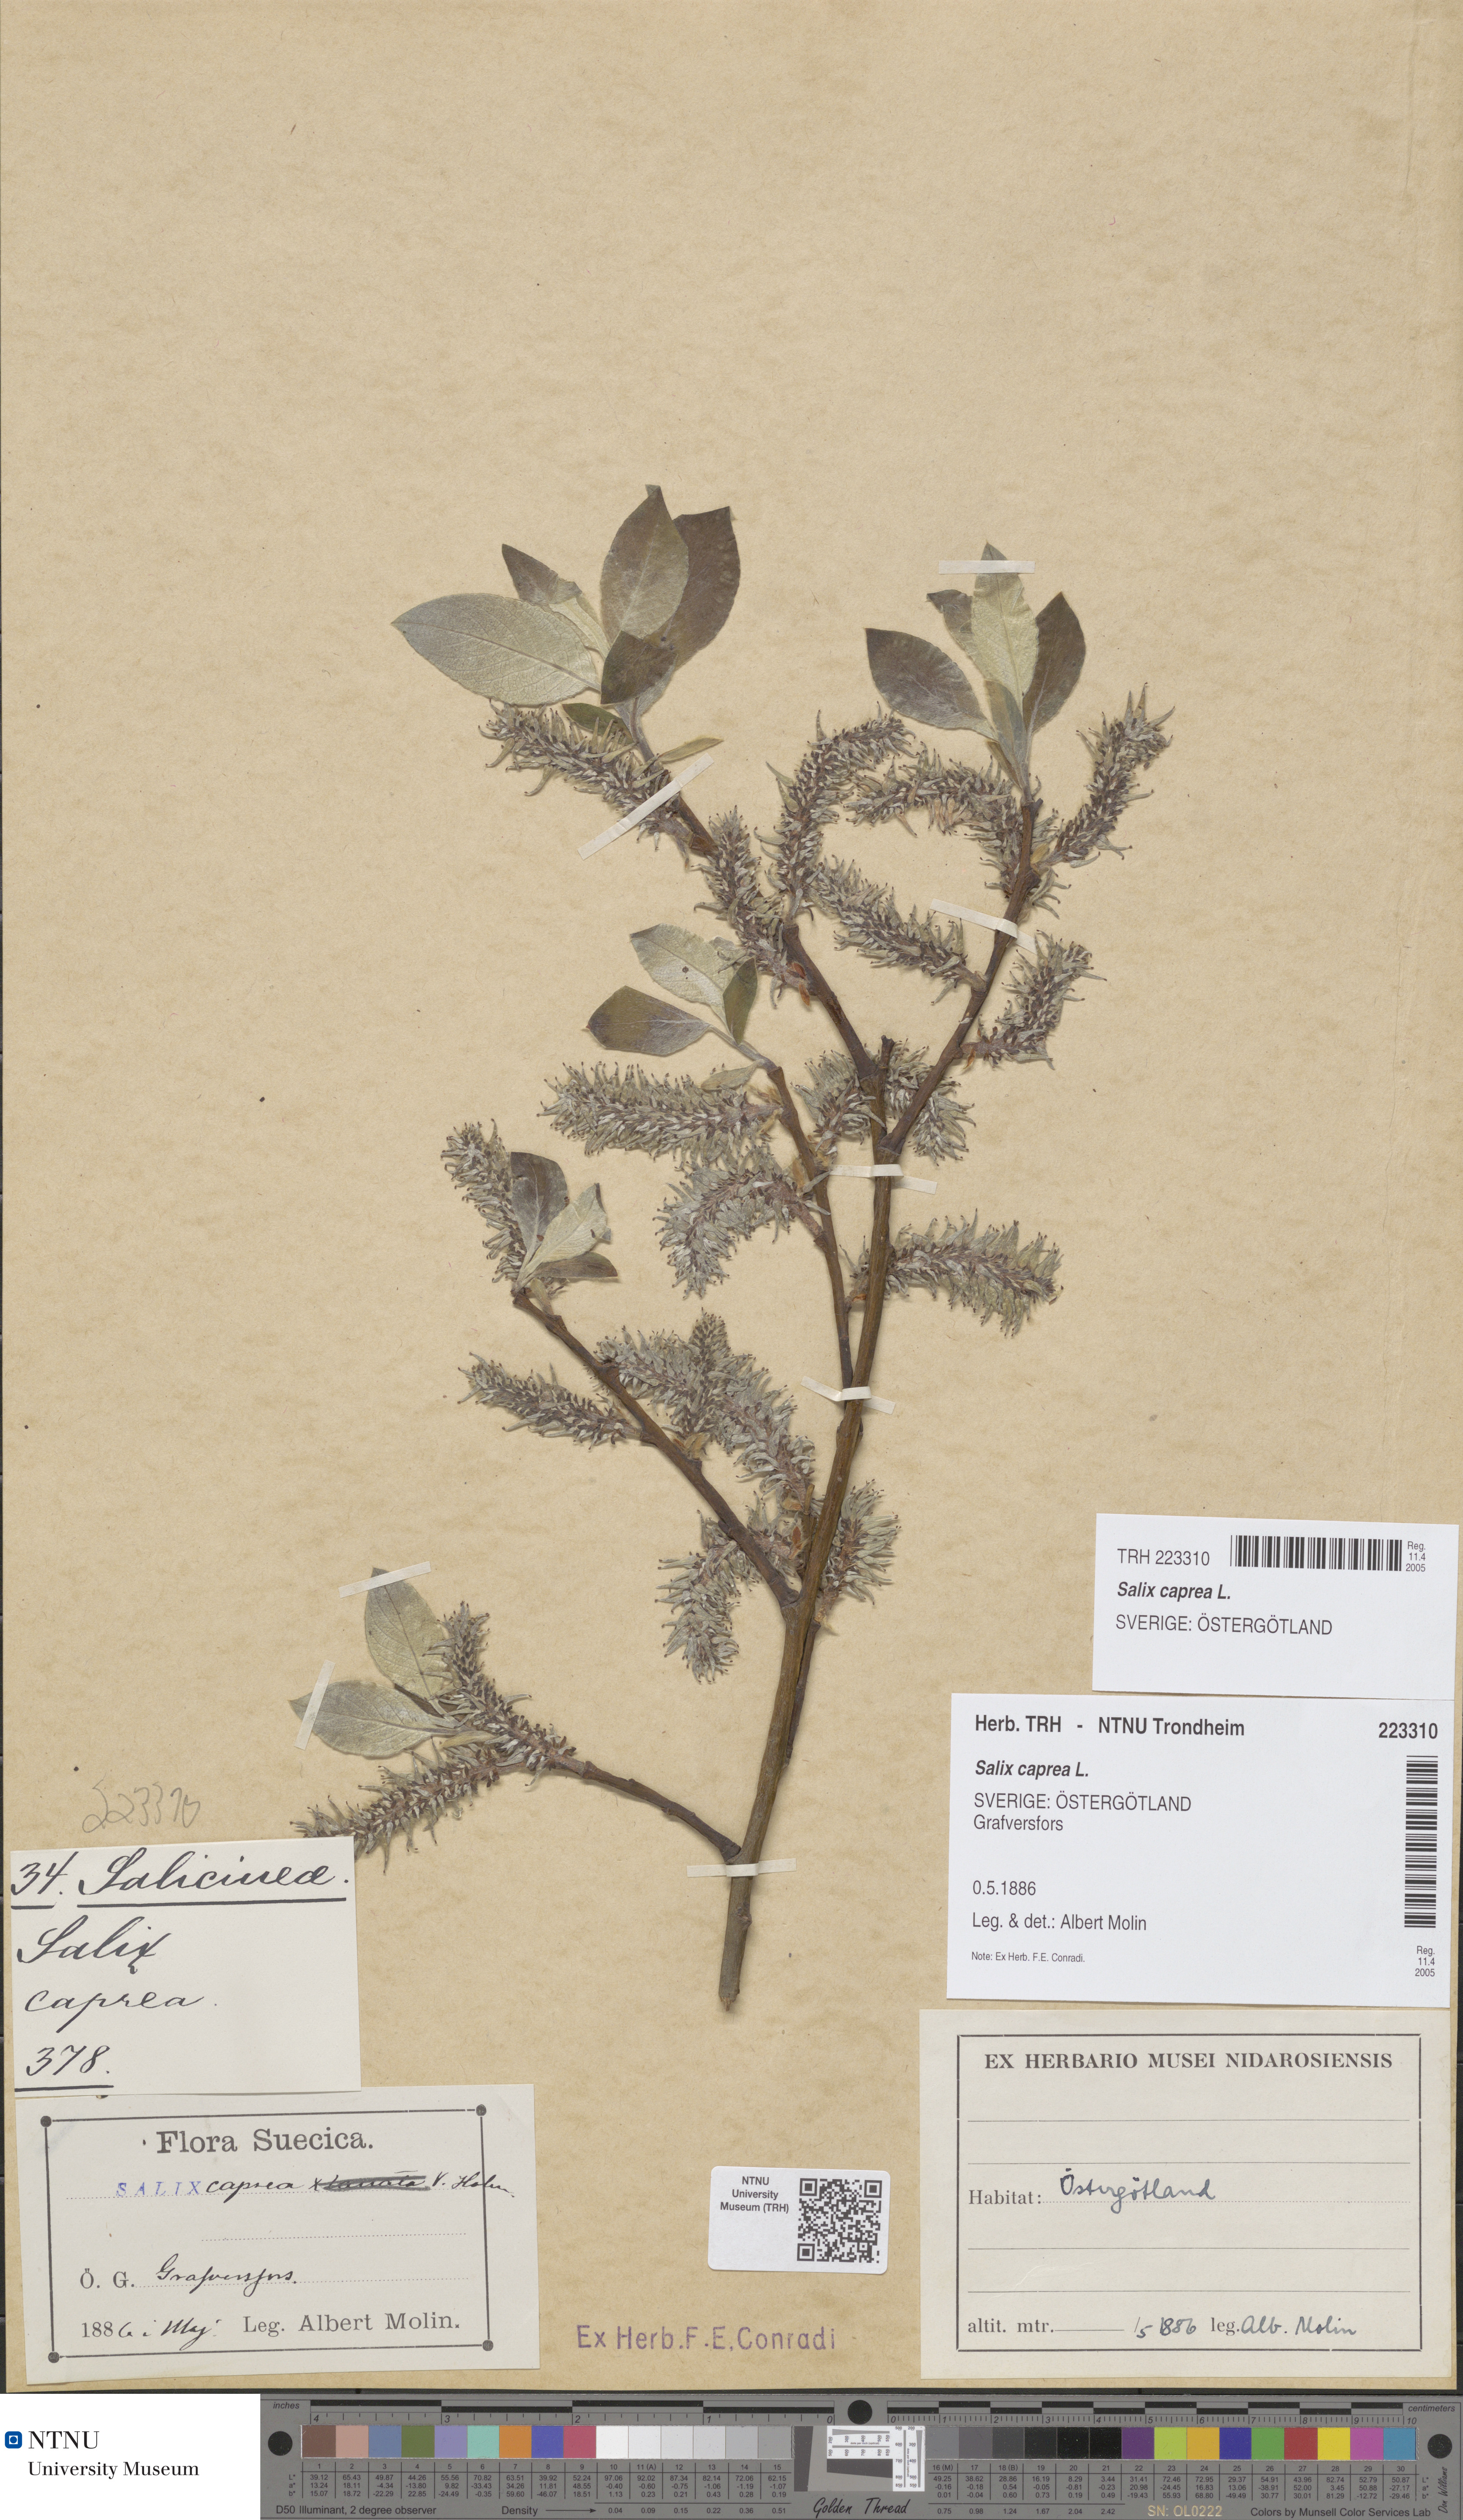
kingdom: Plantae
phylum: Tracheophyta
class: Magnoliopsida
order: Malpighiales
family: Salicaceae
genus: Salix
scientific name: Salix caprea
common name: Goat willow
